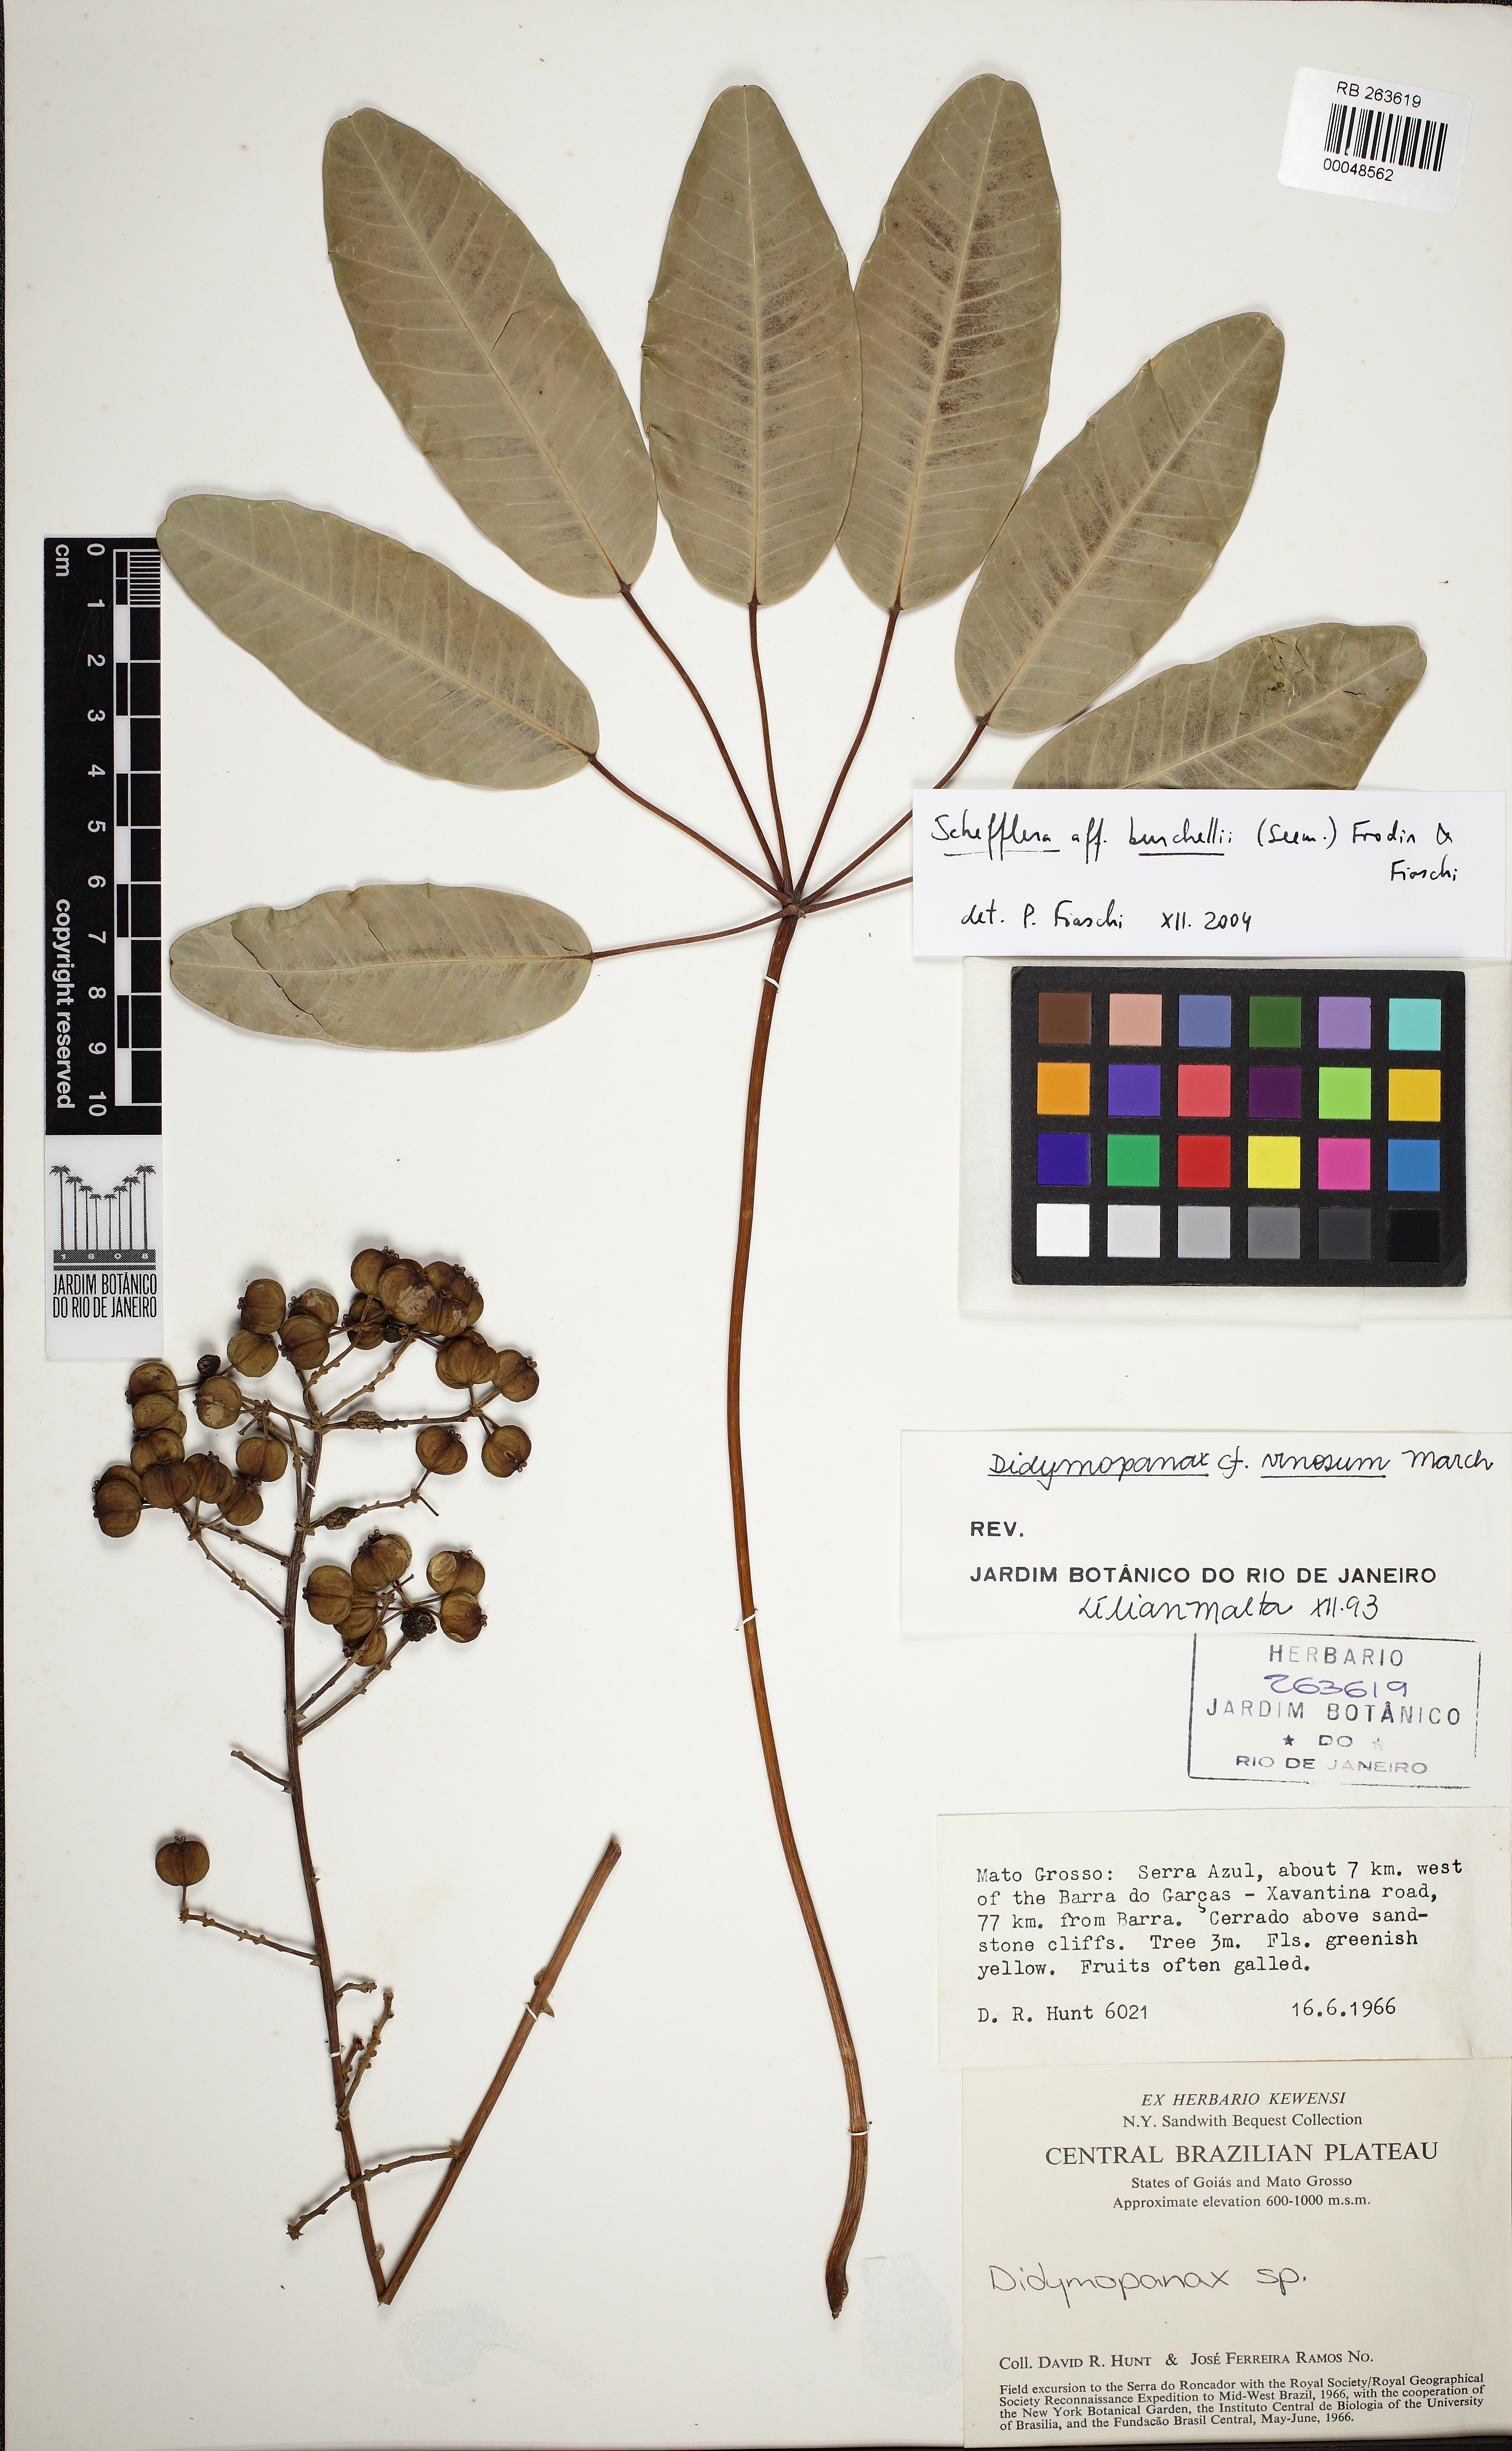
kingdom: Plantae
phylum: Tracheophyta
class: Magnoliopsida
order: Apiales
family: Araliaceae
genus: Didymopanax
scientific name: Didymopanax burchellii
